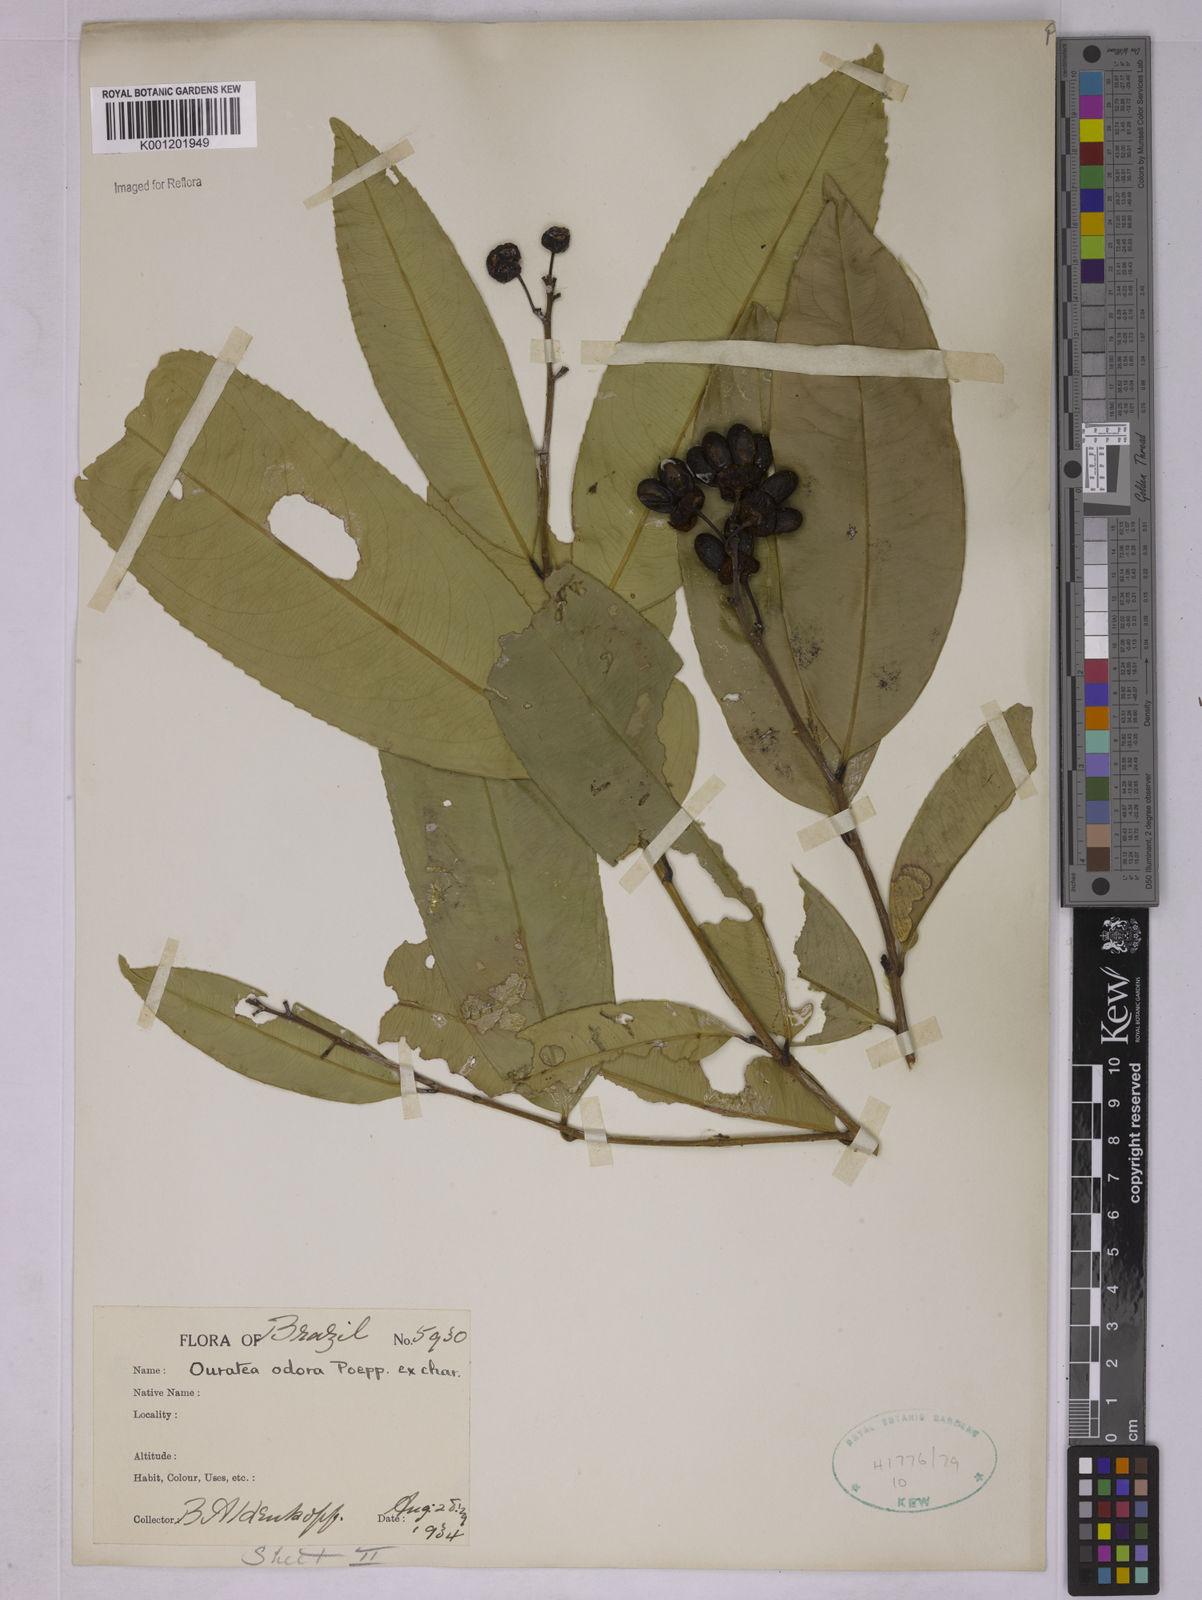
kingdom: Plantae
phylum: Tracheophyta
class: Magnoliopsida
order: Malpighiales
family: Ochnaceae
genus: Ouratea
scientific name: Ouratea superba
